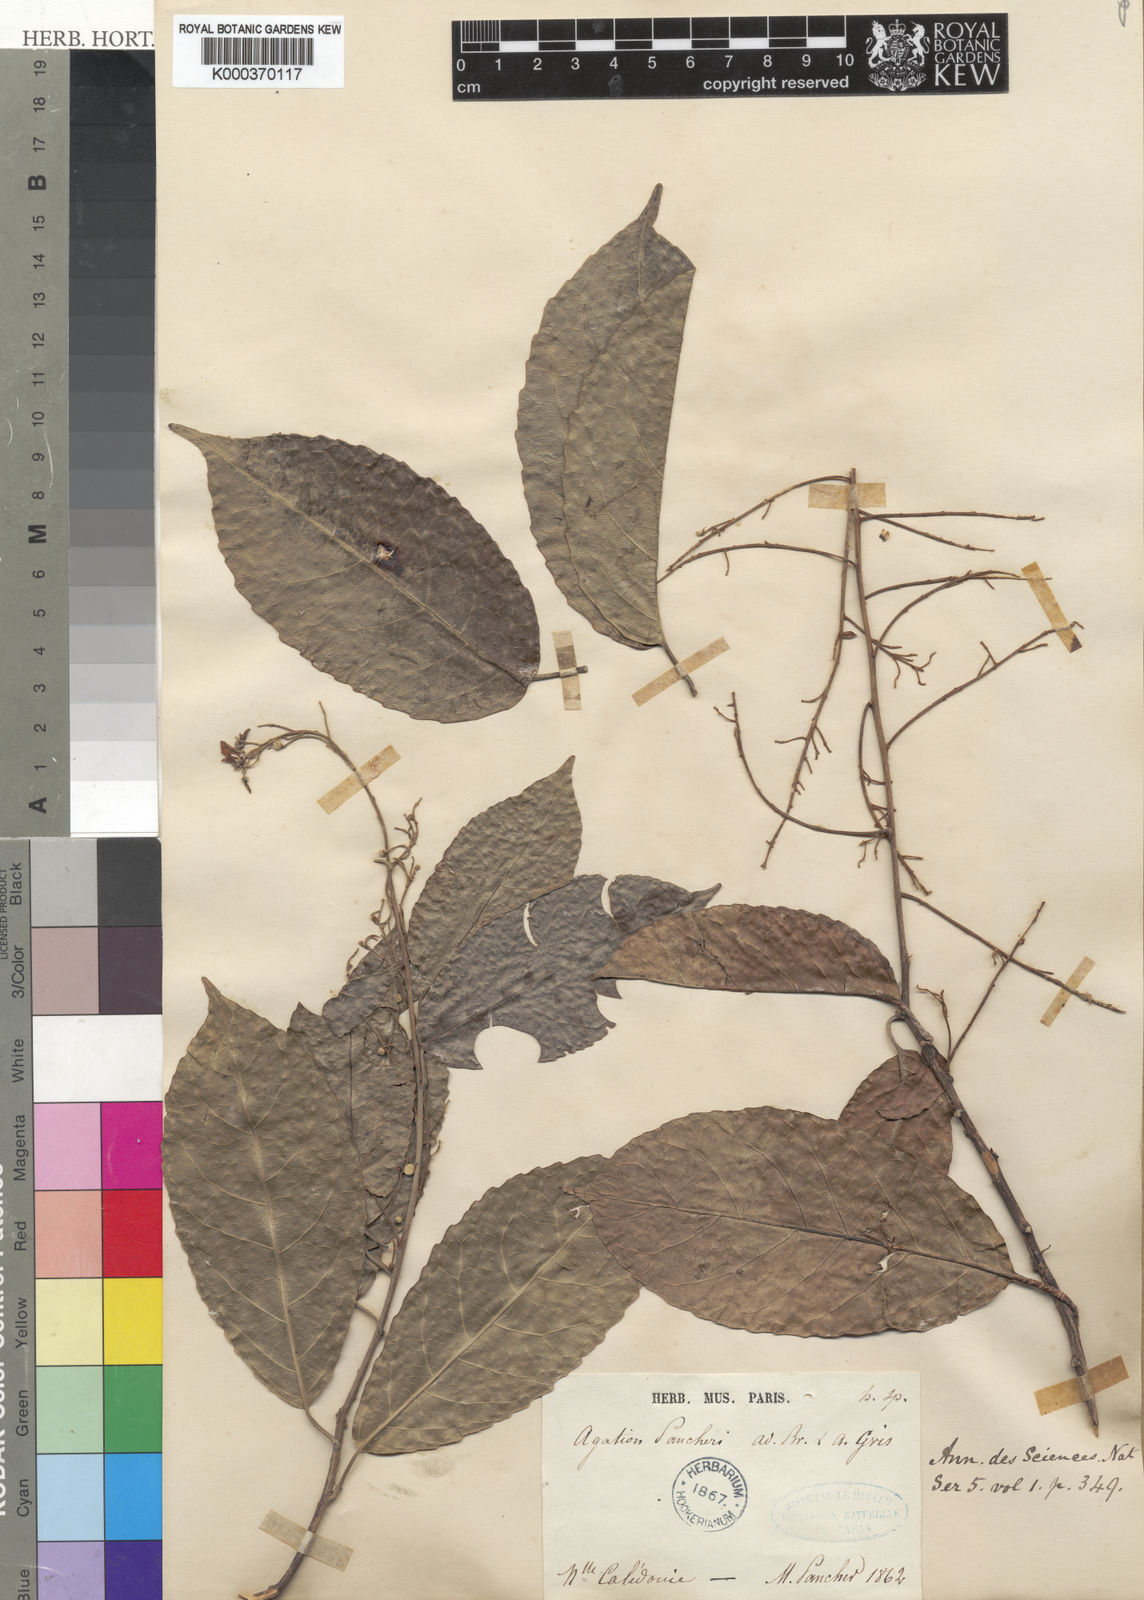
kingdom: Plantae
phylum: Tracheophyta
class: Magnoliopsida
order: Malpighiales
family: Violaceae
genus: Agatea
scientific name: Agatea
